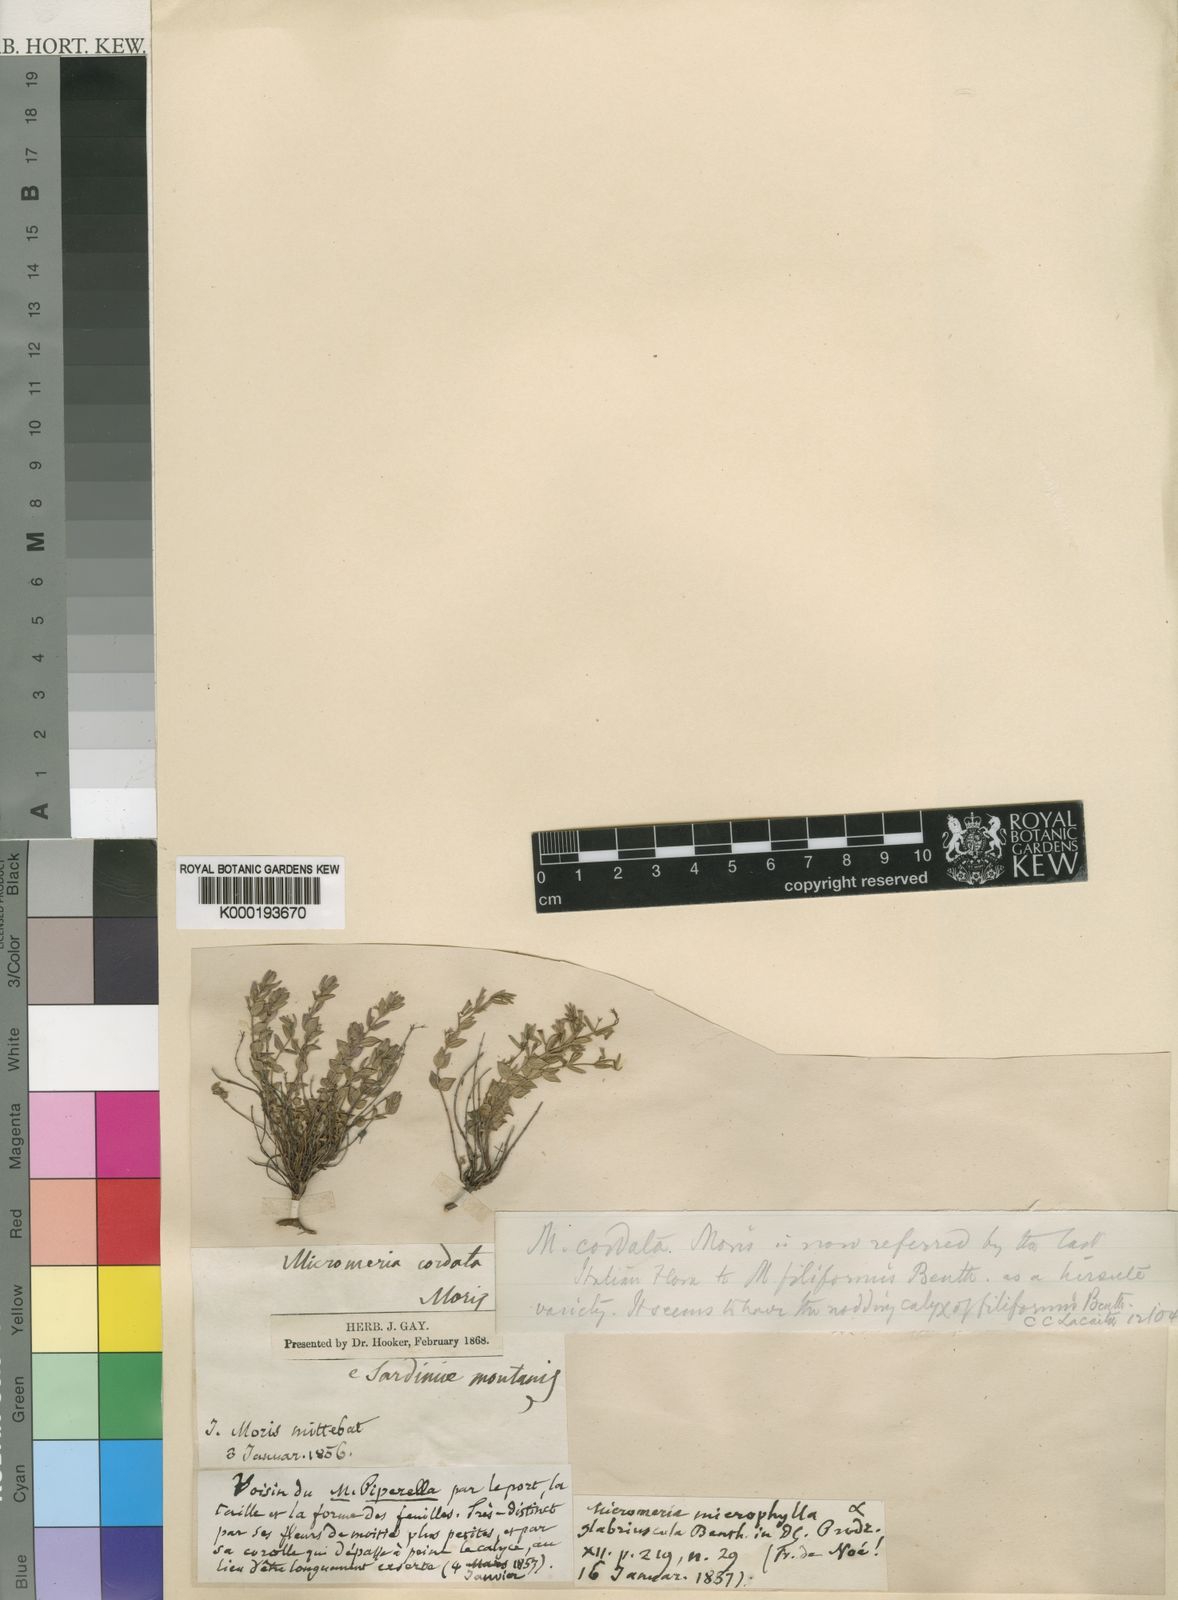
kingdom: Plantae
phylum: Tracheophyta
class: Magnoliopsida
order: Lamiales
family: Lamiaceae
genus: Micromeria
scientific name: Micromeria microphylla
